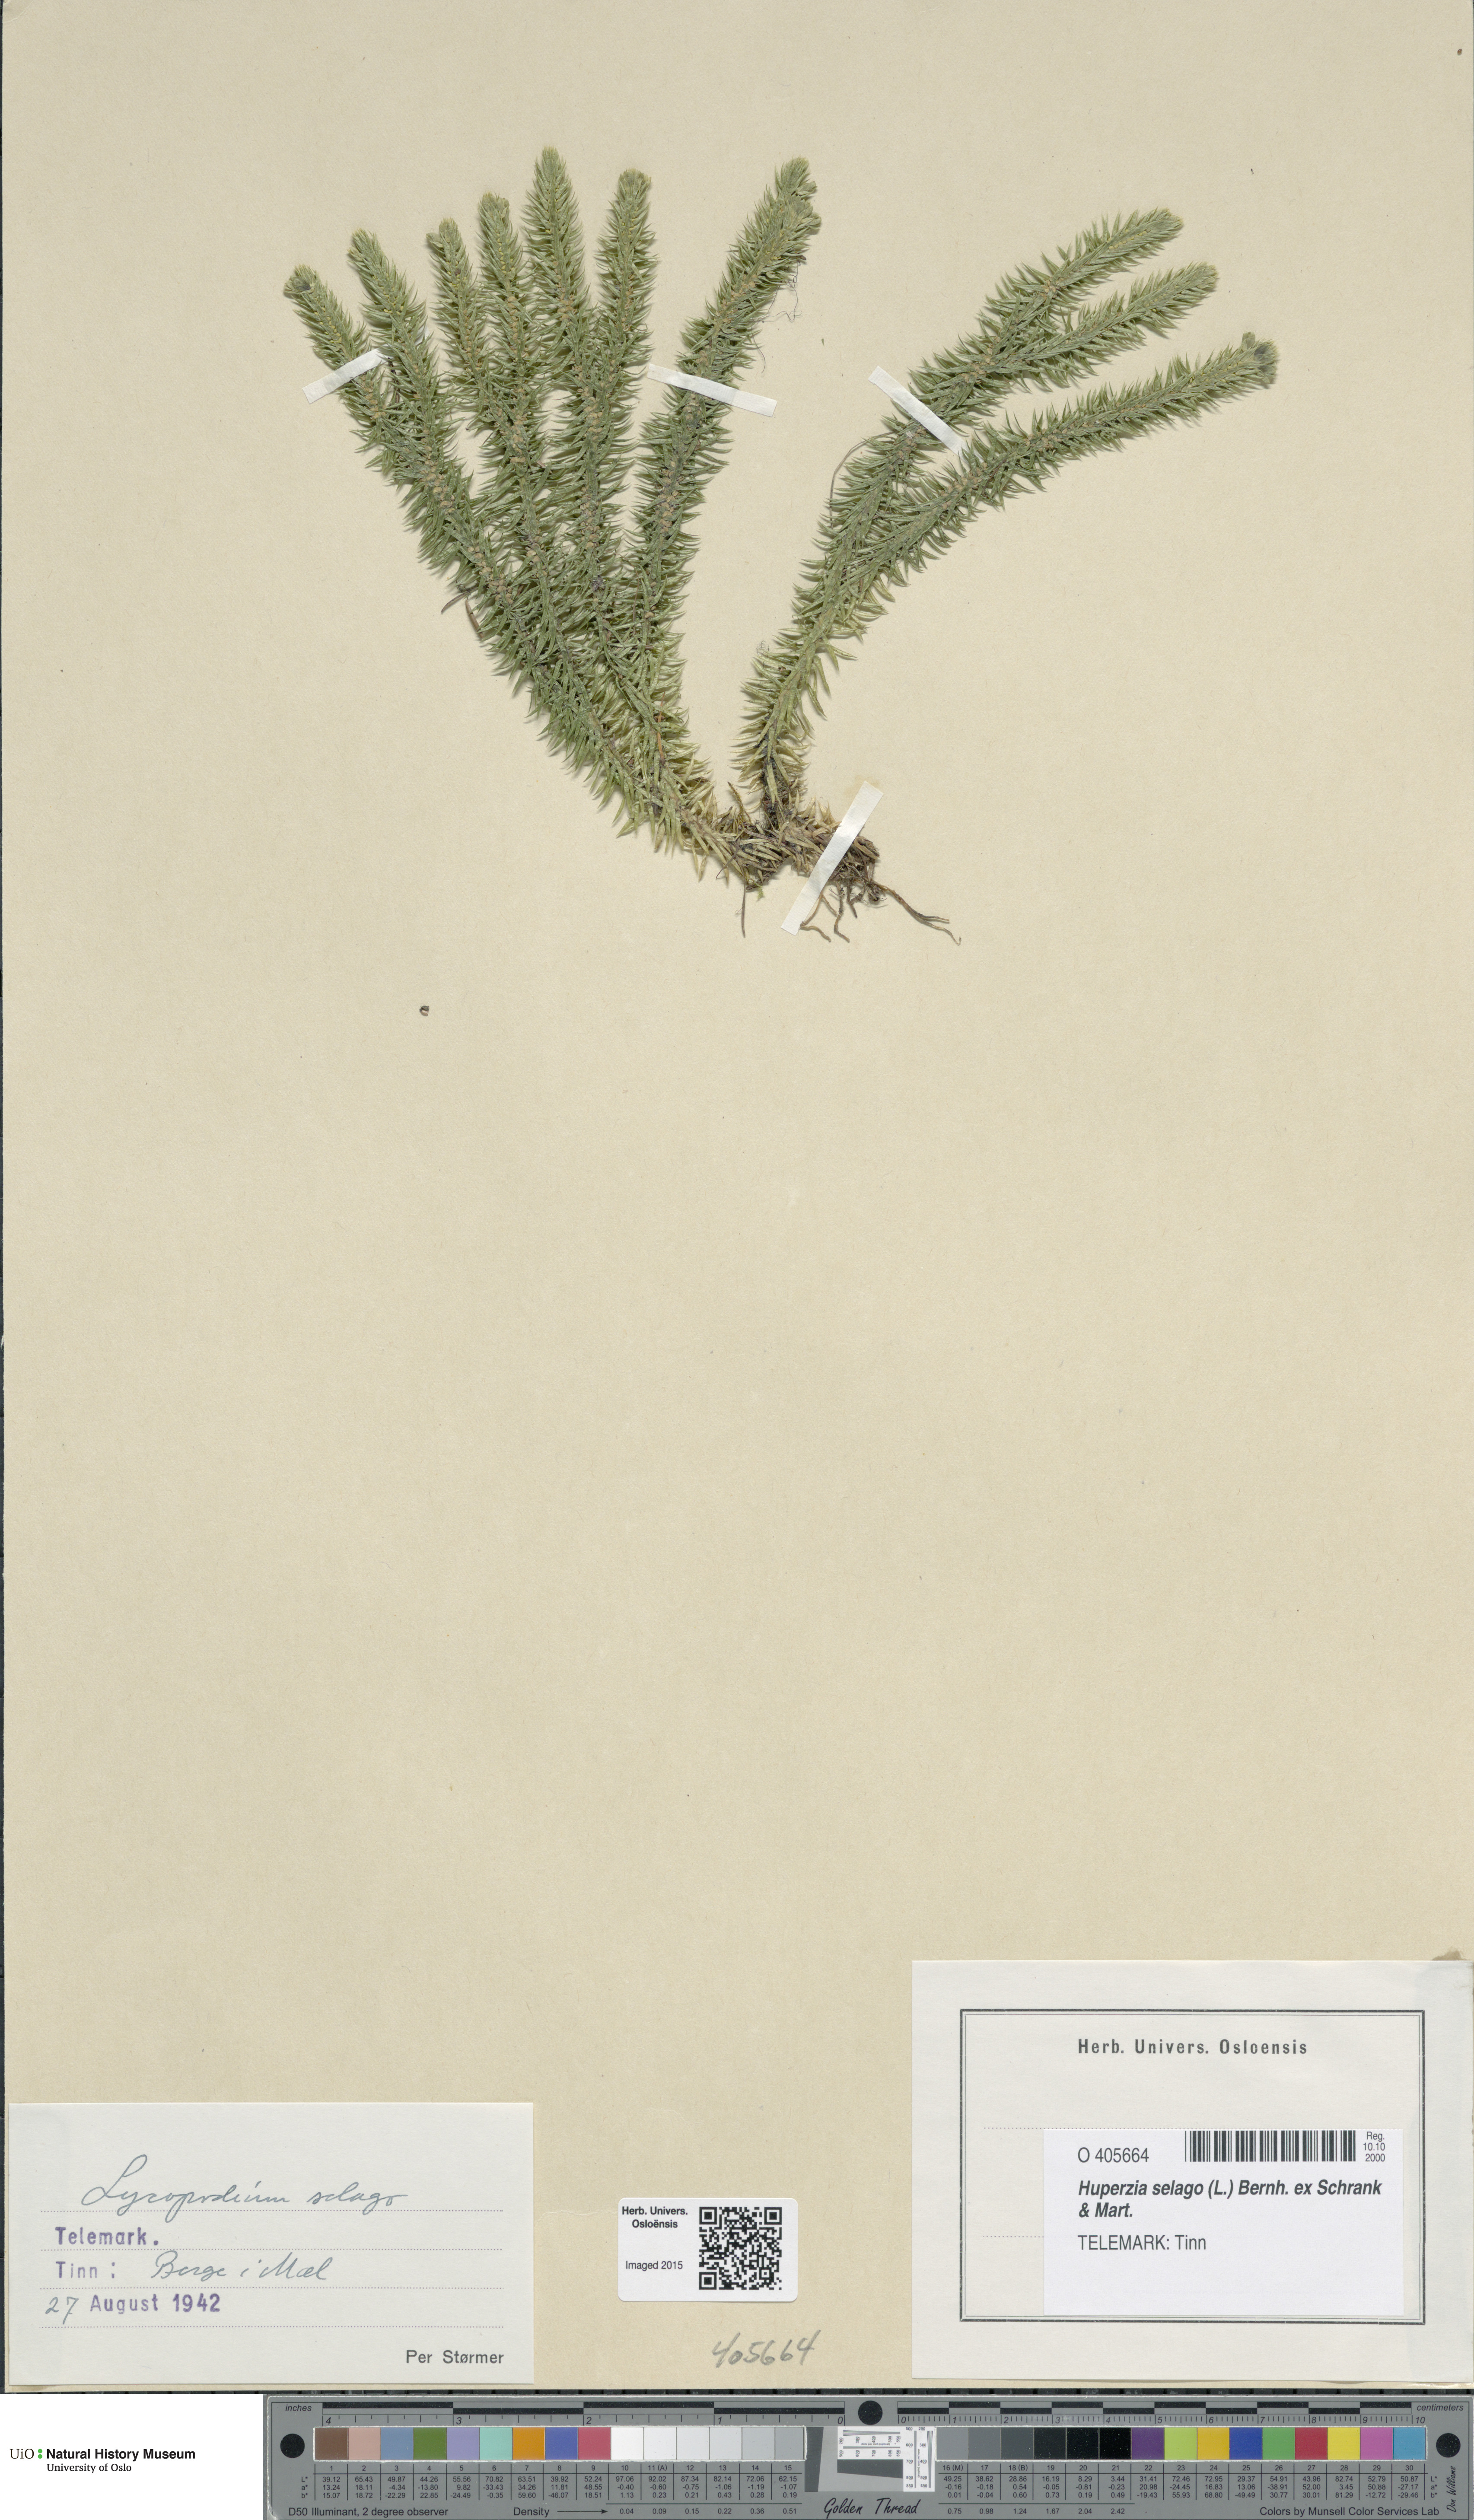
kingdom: Plantae
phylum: Tracheophyta
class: Lycopodiopsida
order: Lycopodiales
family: Lycopodiaceae
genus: Huperzia
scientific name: Huperzia selago
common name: Northern firmoss
